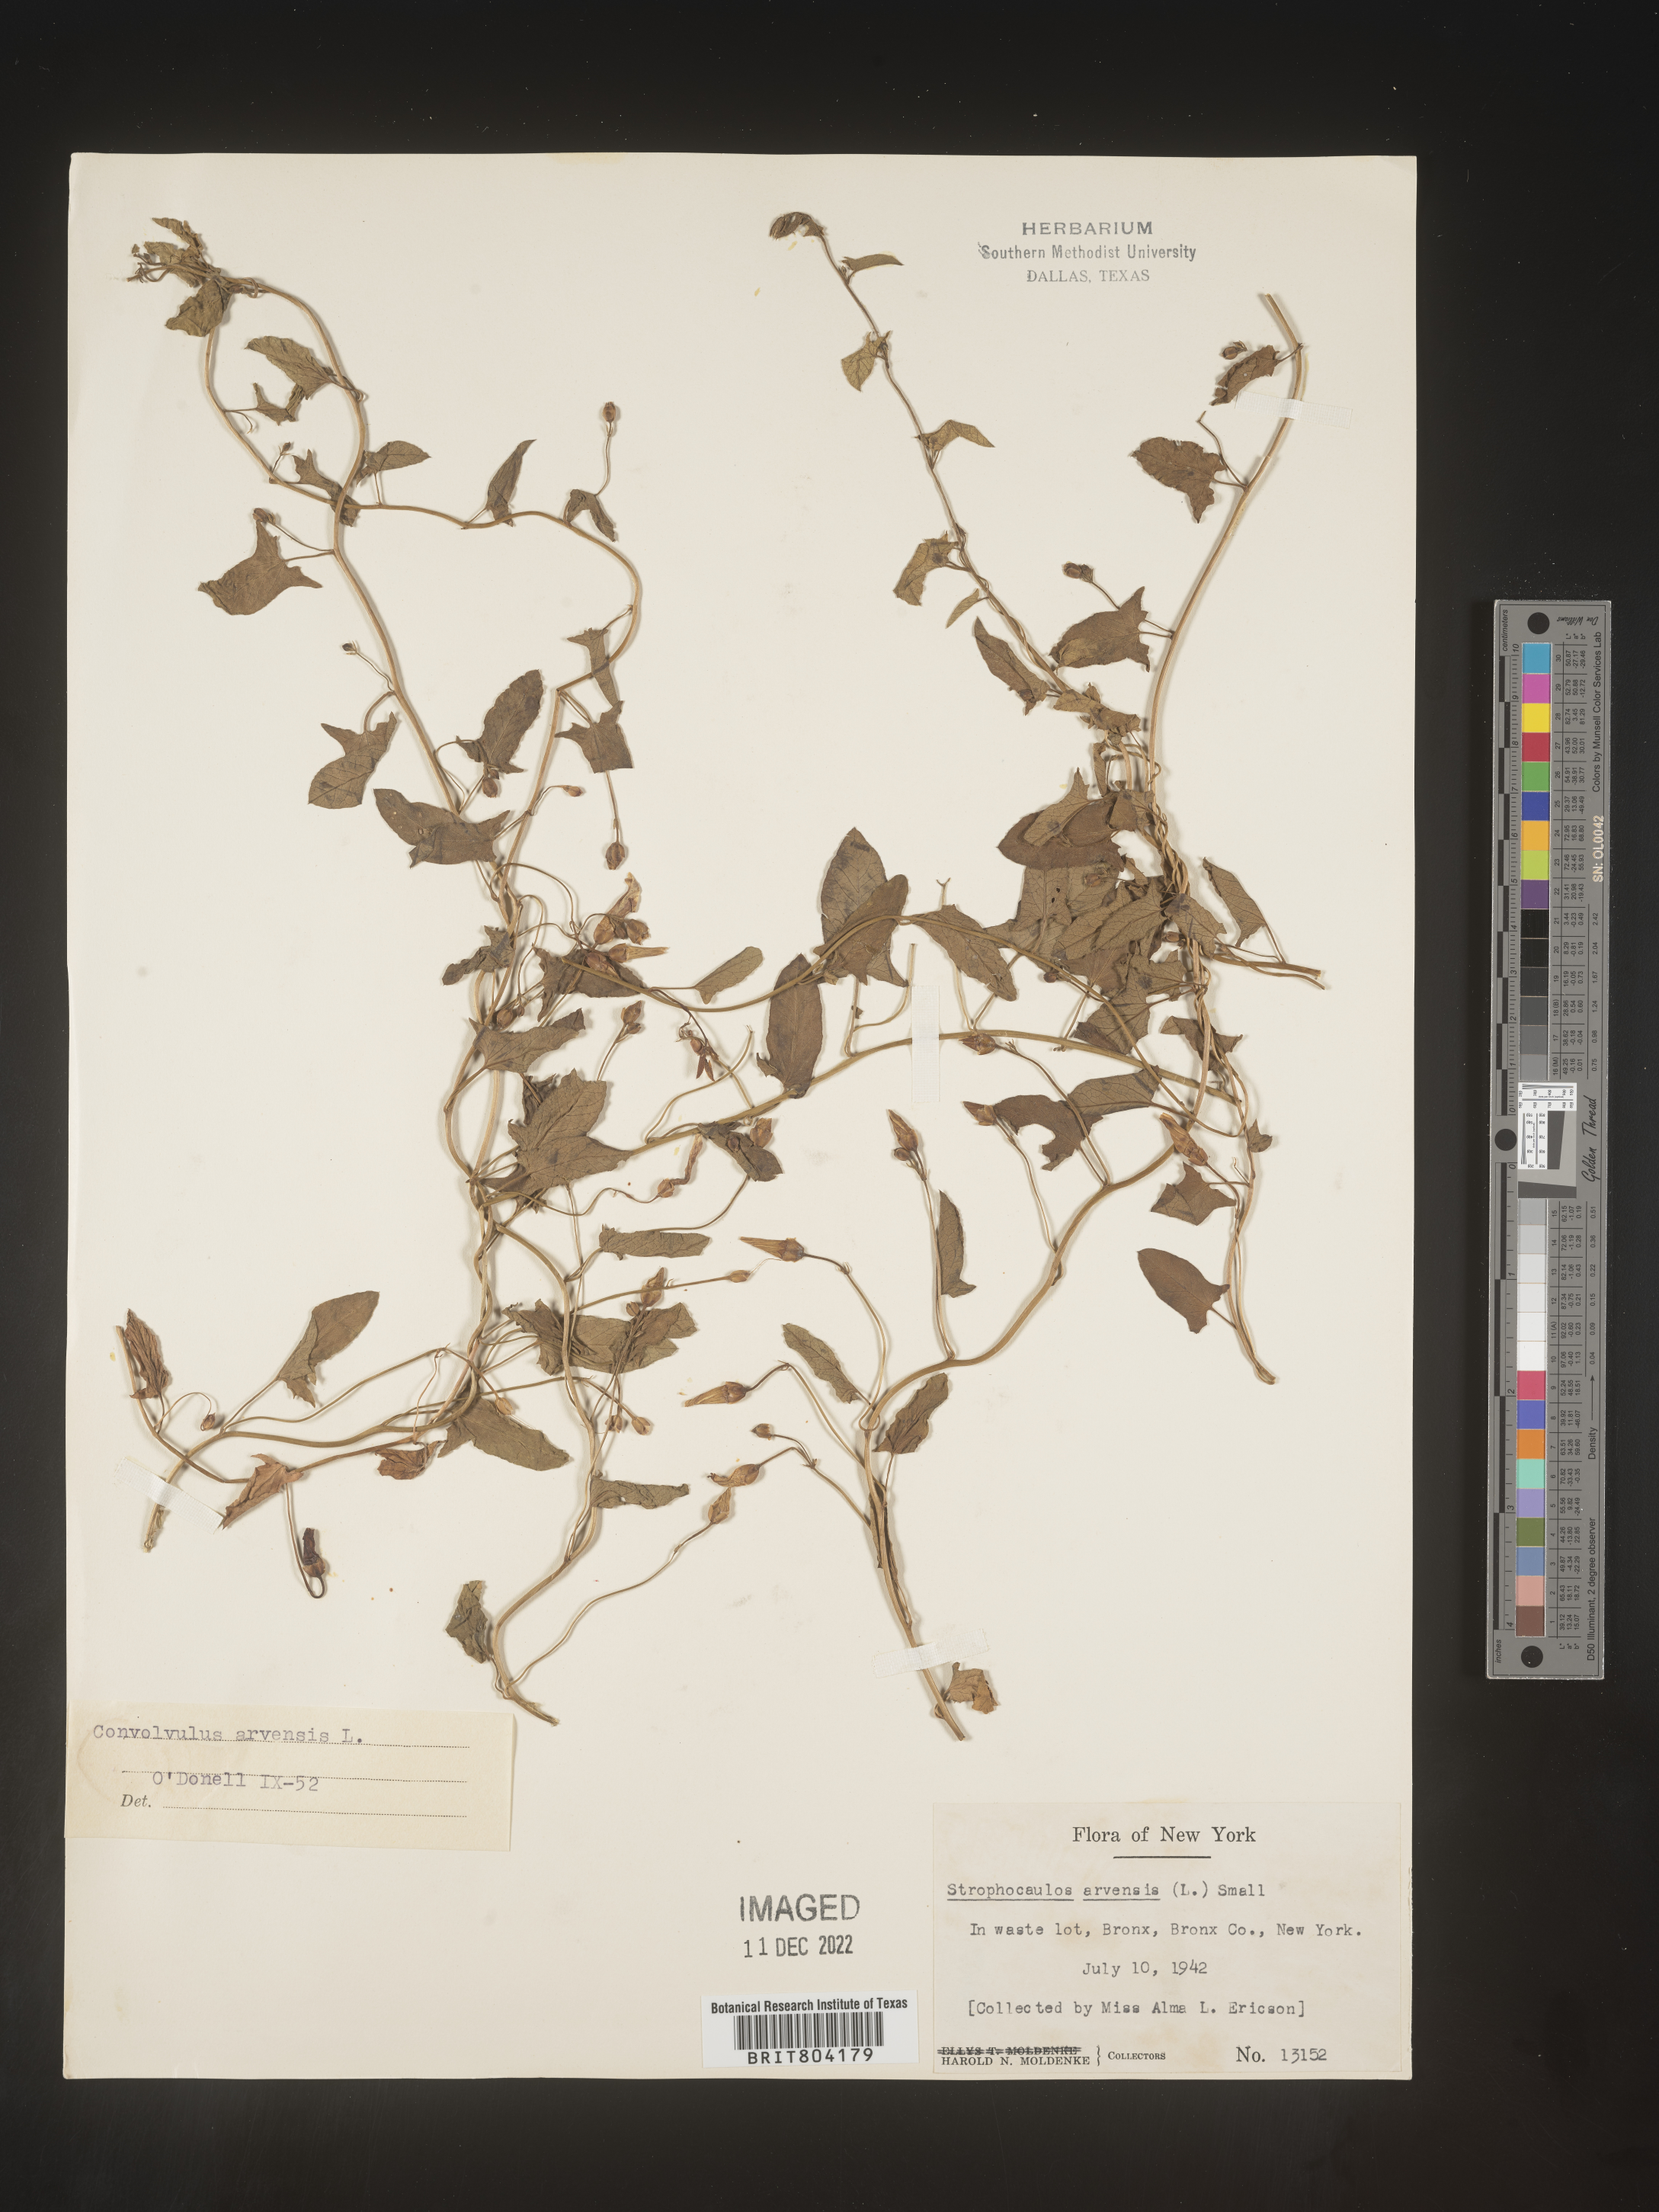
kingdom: Plantae
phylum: Tracheophyta
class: Magnoliopsida
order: Solanales
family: Convolvulaceae
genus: Convolvulus
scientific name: Convolvulus arvensis
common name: Field bindweed
